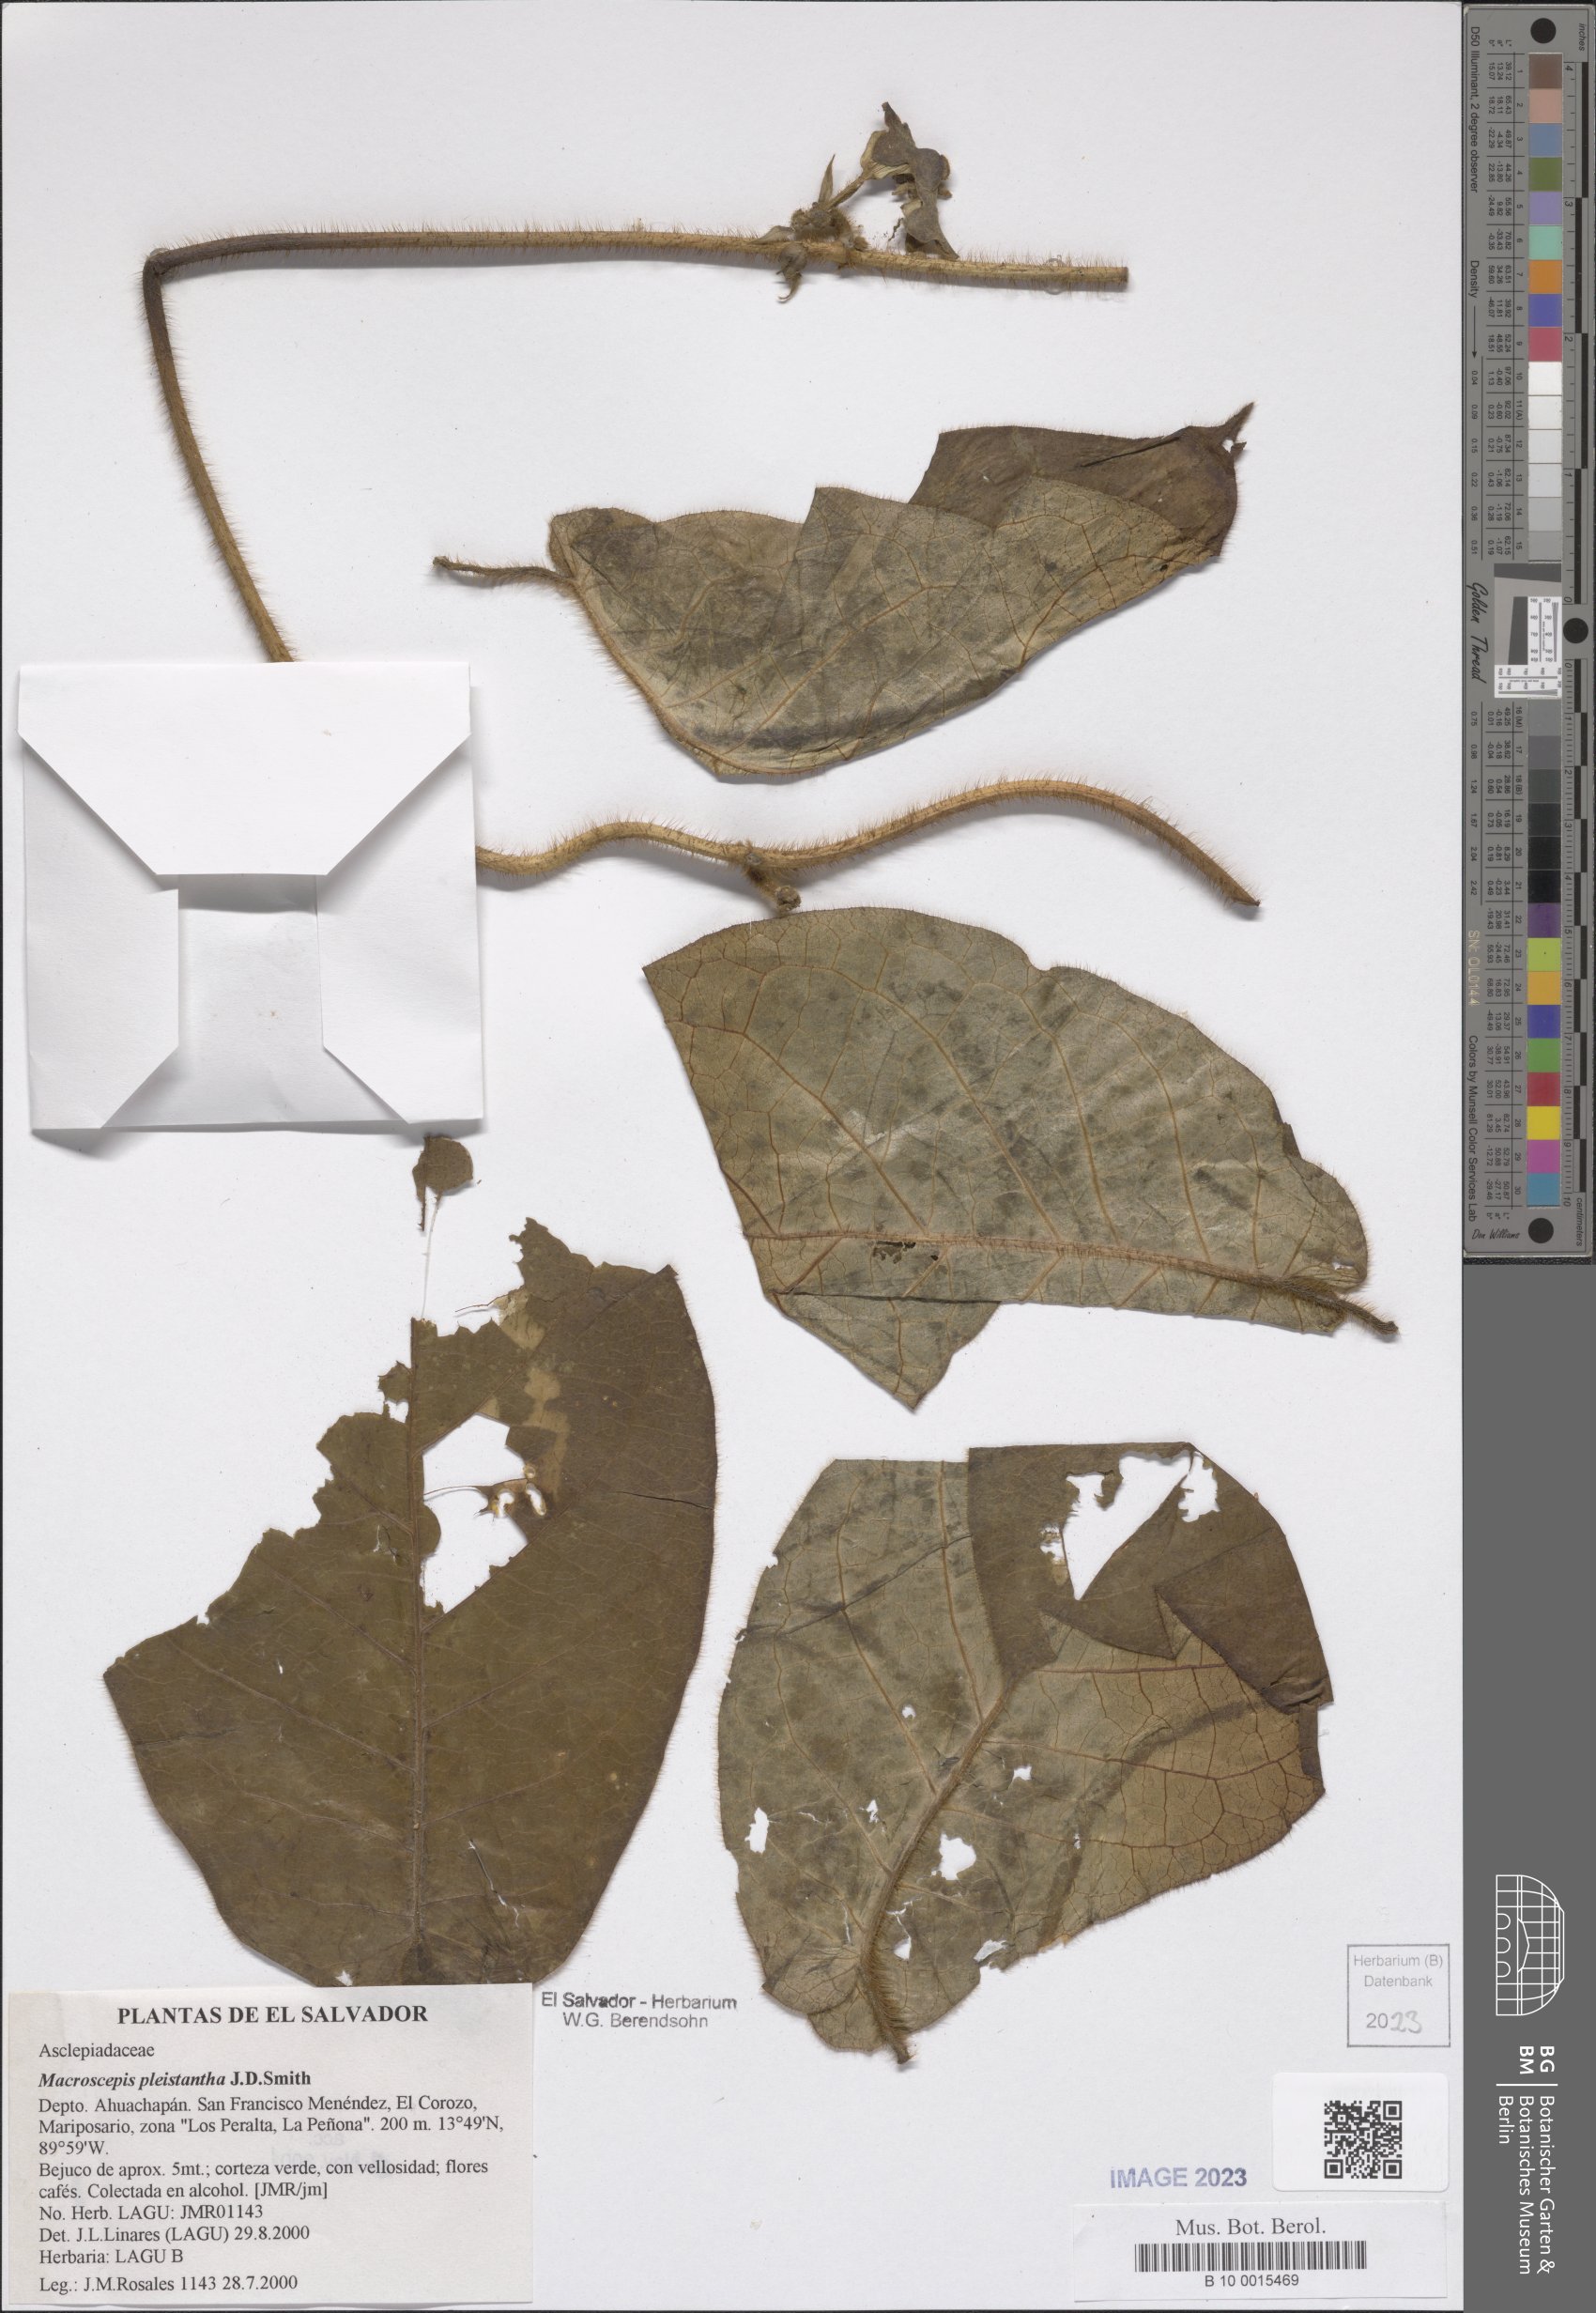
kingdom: Plantae
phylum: Tracheophyta
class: Magnoliopsida
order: Gentianales
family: Apocynaceae
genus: Macroscepis
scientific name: Macroscepis pleistantha
